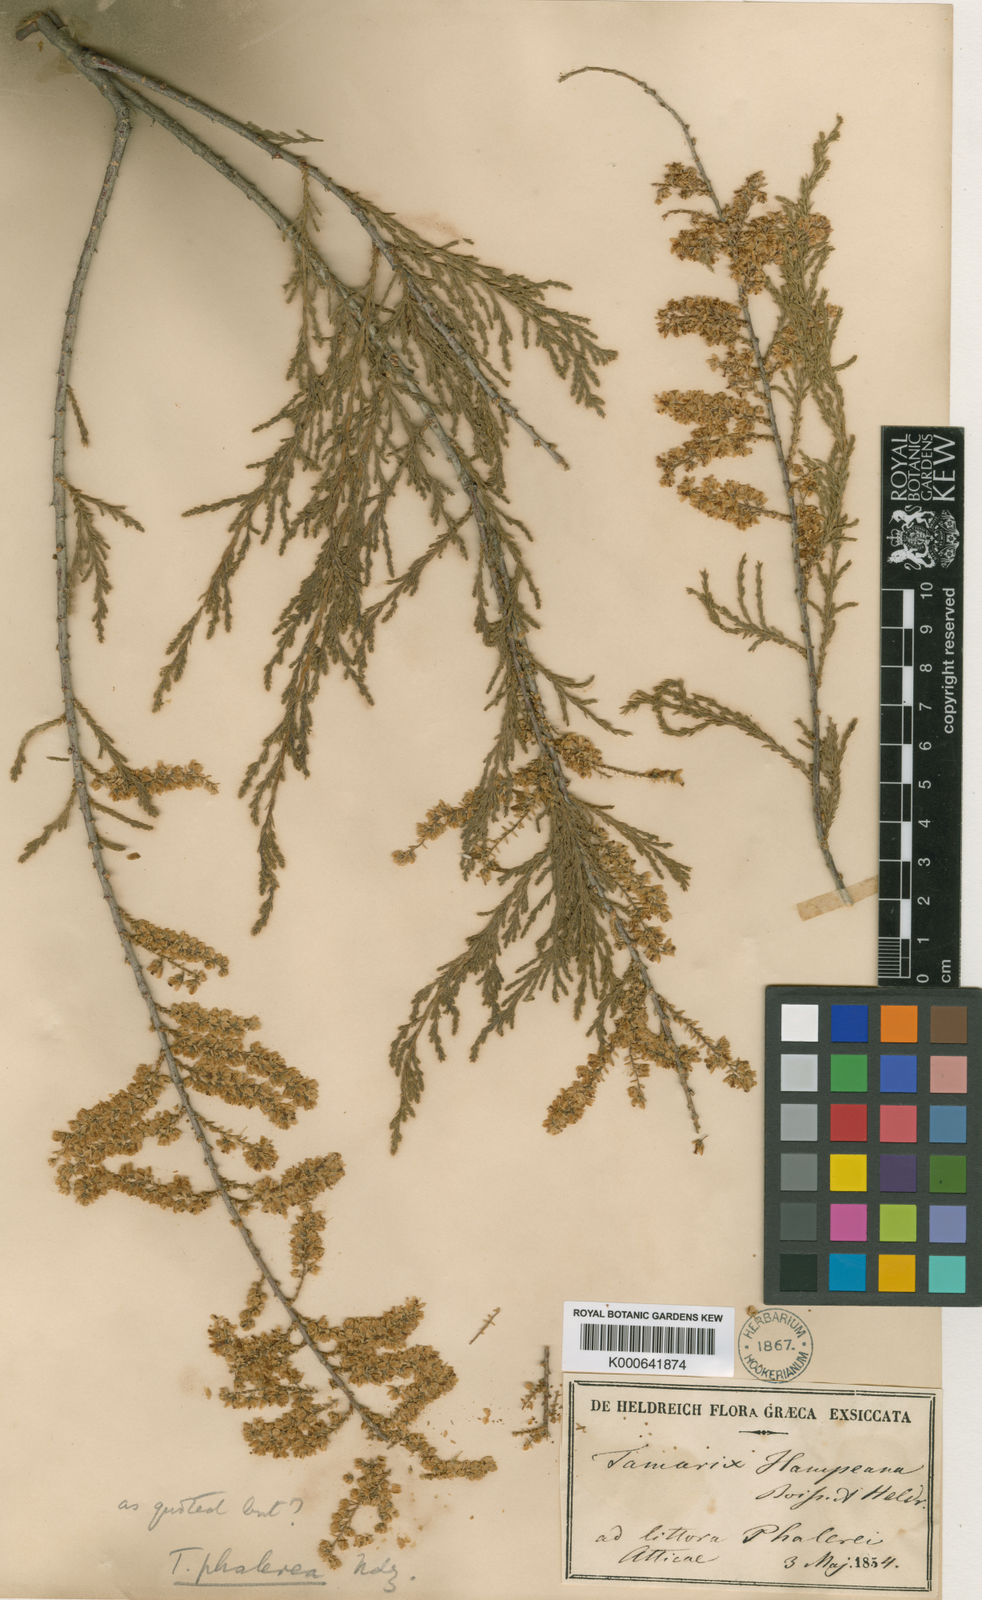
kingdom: Plantae
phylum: Tracheophyta
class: Magnoliopsida
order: Caryophyllales
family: Tamaricaceae
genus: Tamarix
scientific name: Tamarix hampeana
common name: Hampe’s tamarisk
